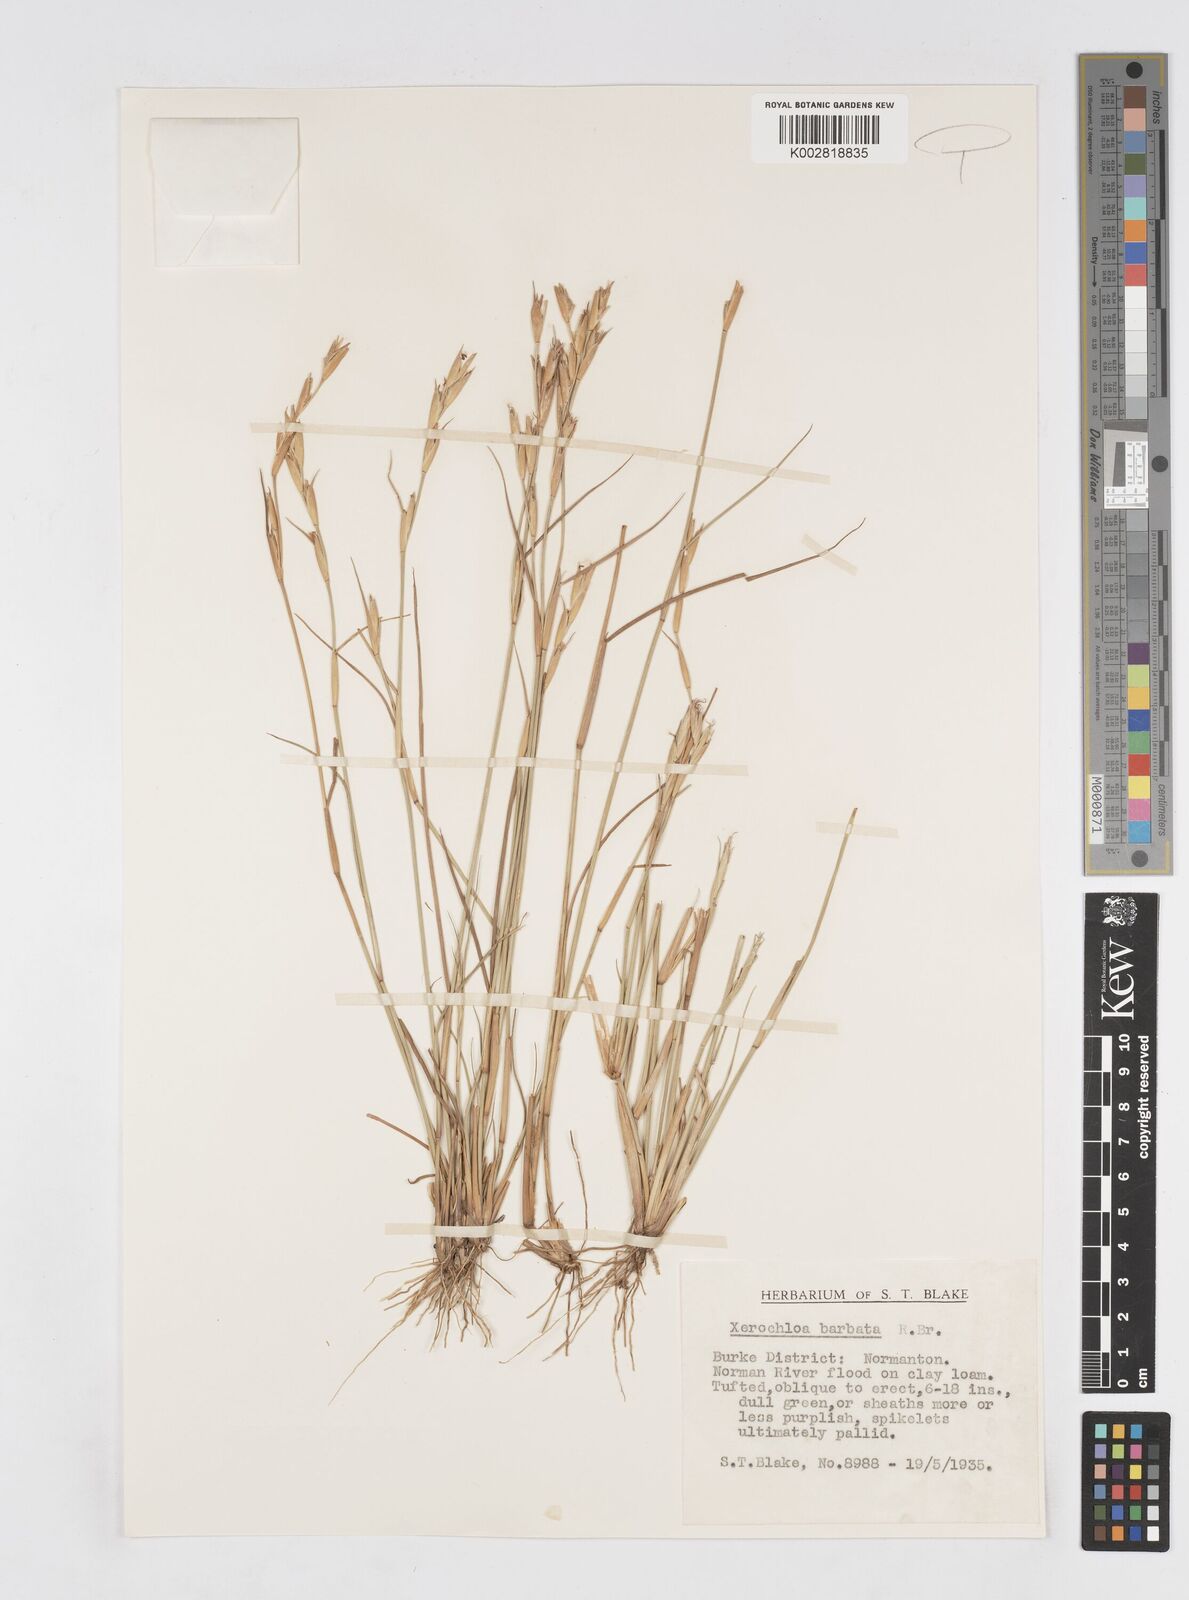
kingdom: Plantae
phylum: Tracheophyta
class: Liliopsida
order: Poales
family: Poaceae
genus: Xerochloa
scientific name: Xerochloa barbata
